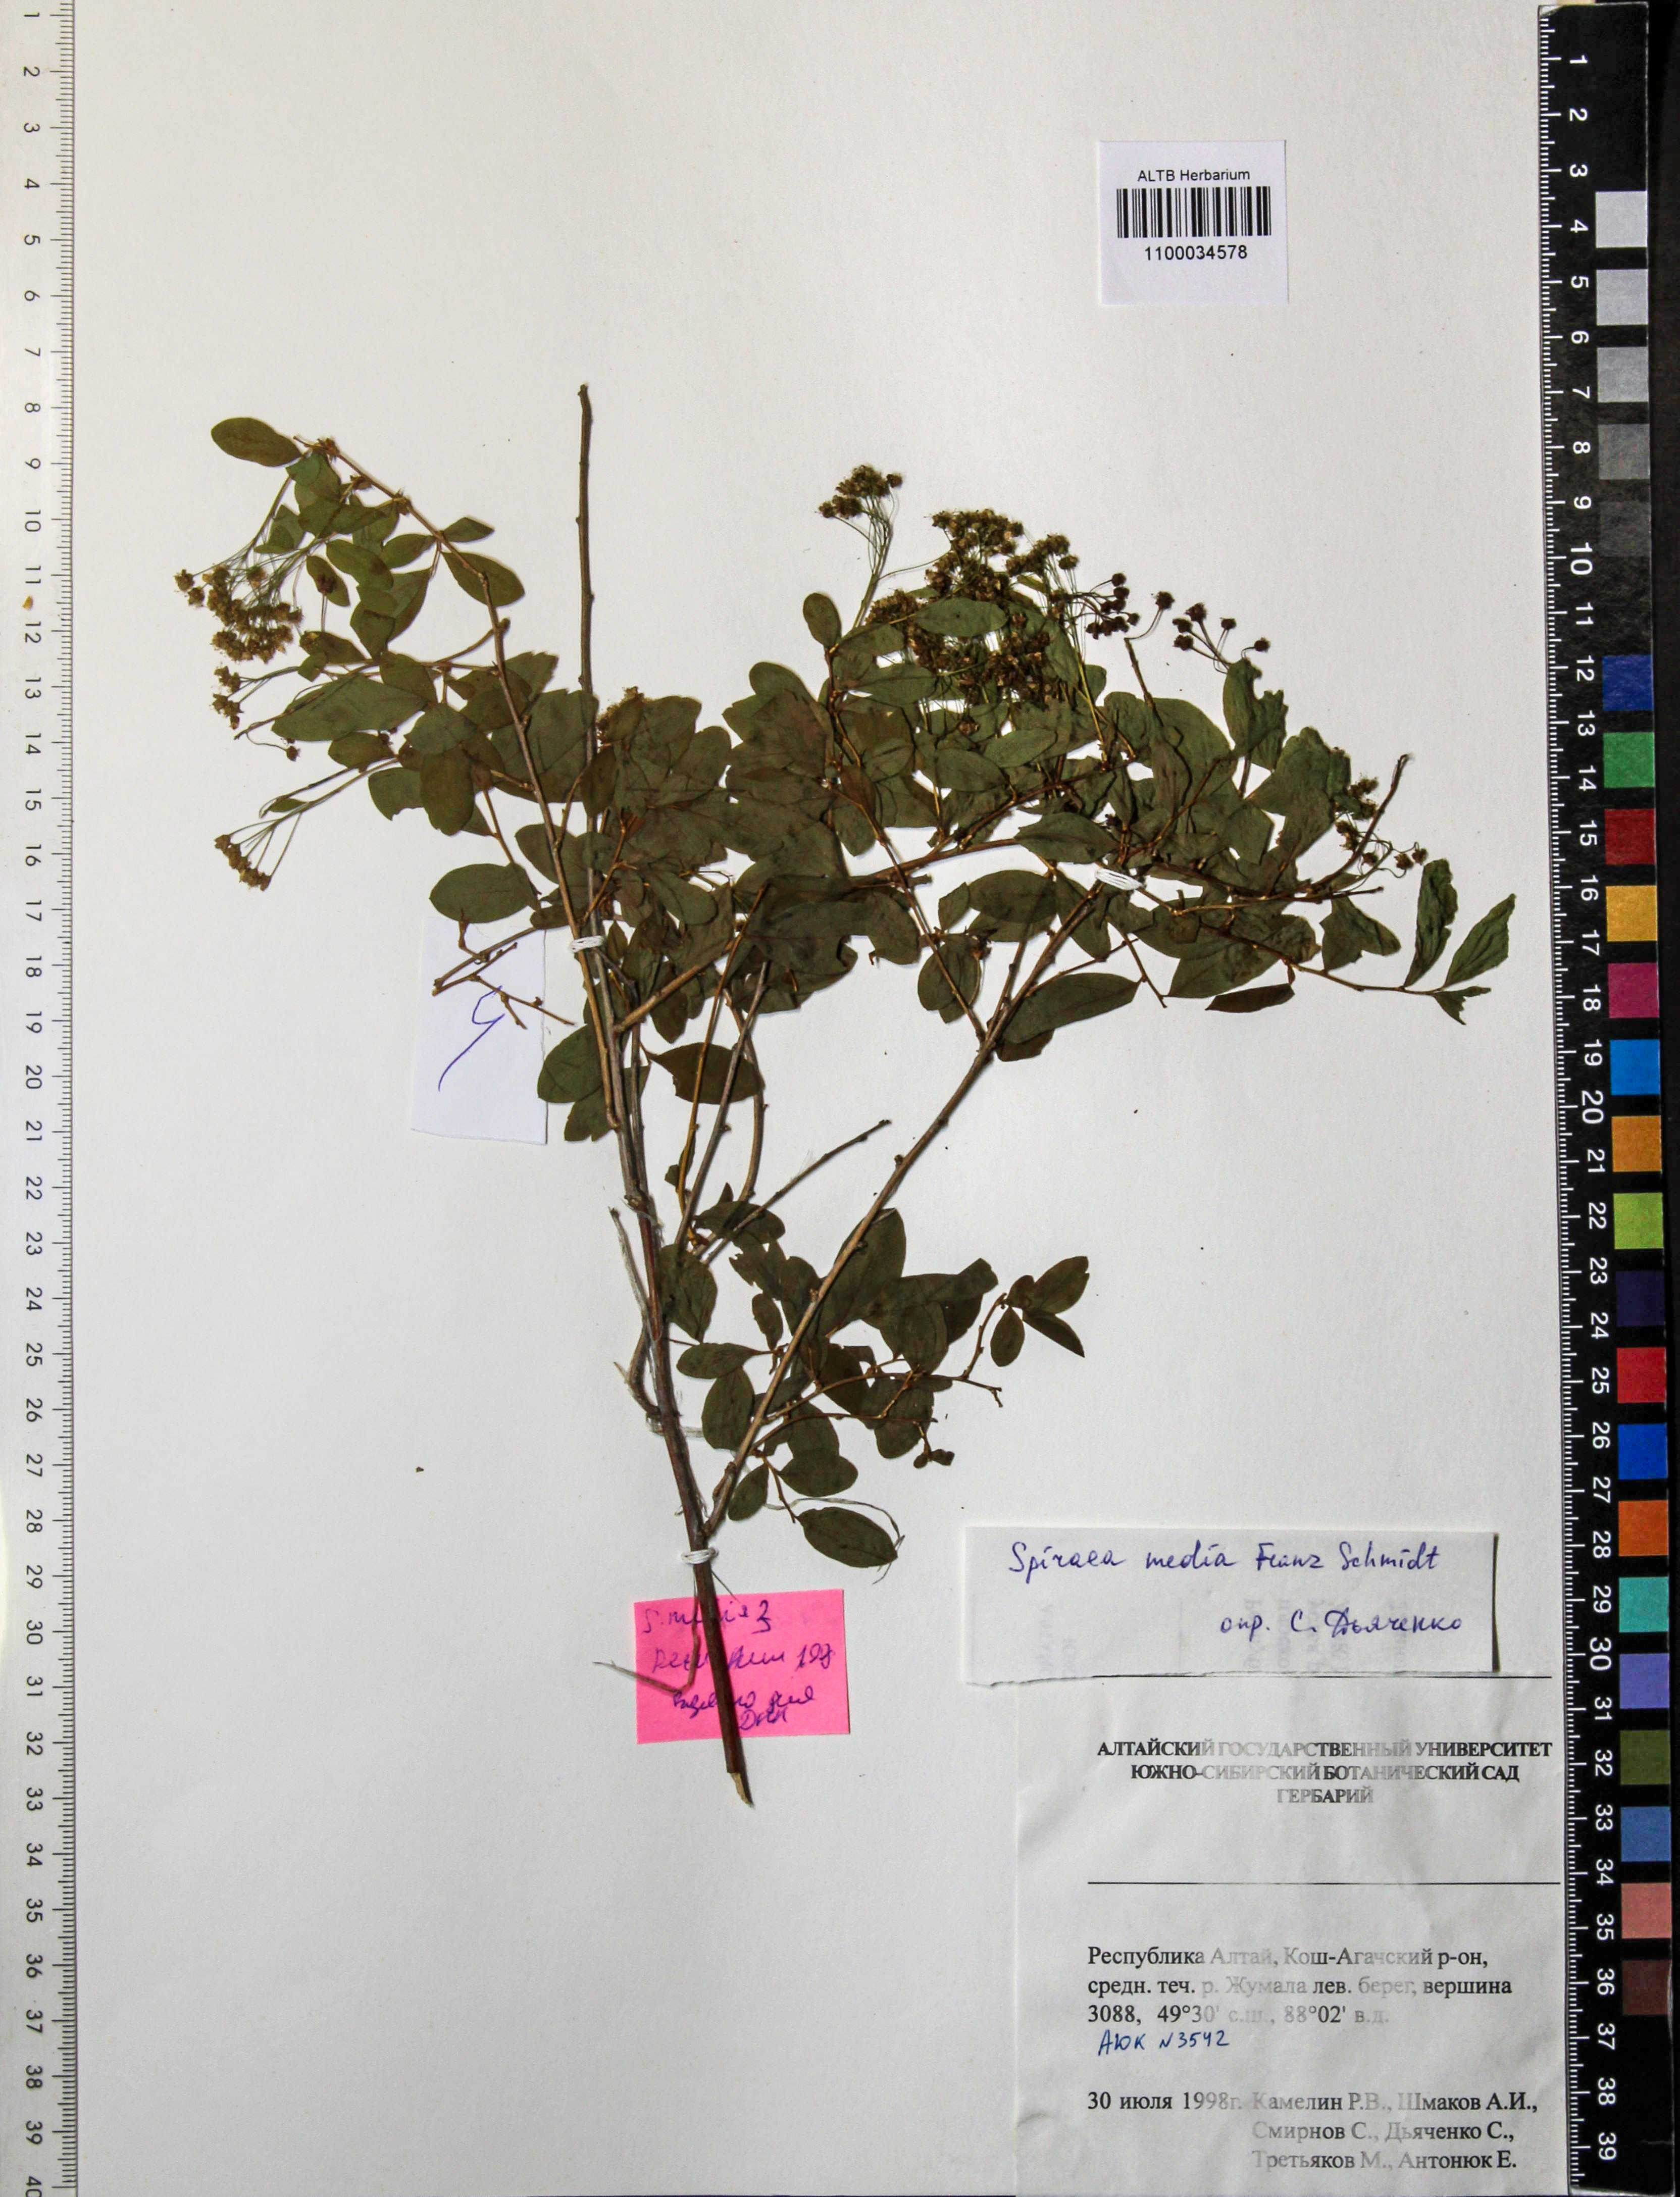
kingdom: Plantae
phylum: Tracheophyta
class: Magnoliopsida
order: Rosales
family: Rosaceae
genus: Spiraea
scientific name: Spiraea media
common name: Russian spiraea
